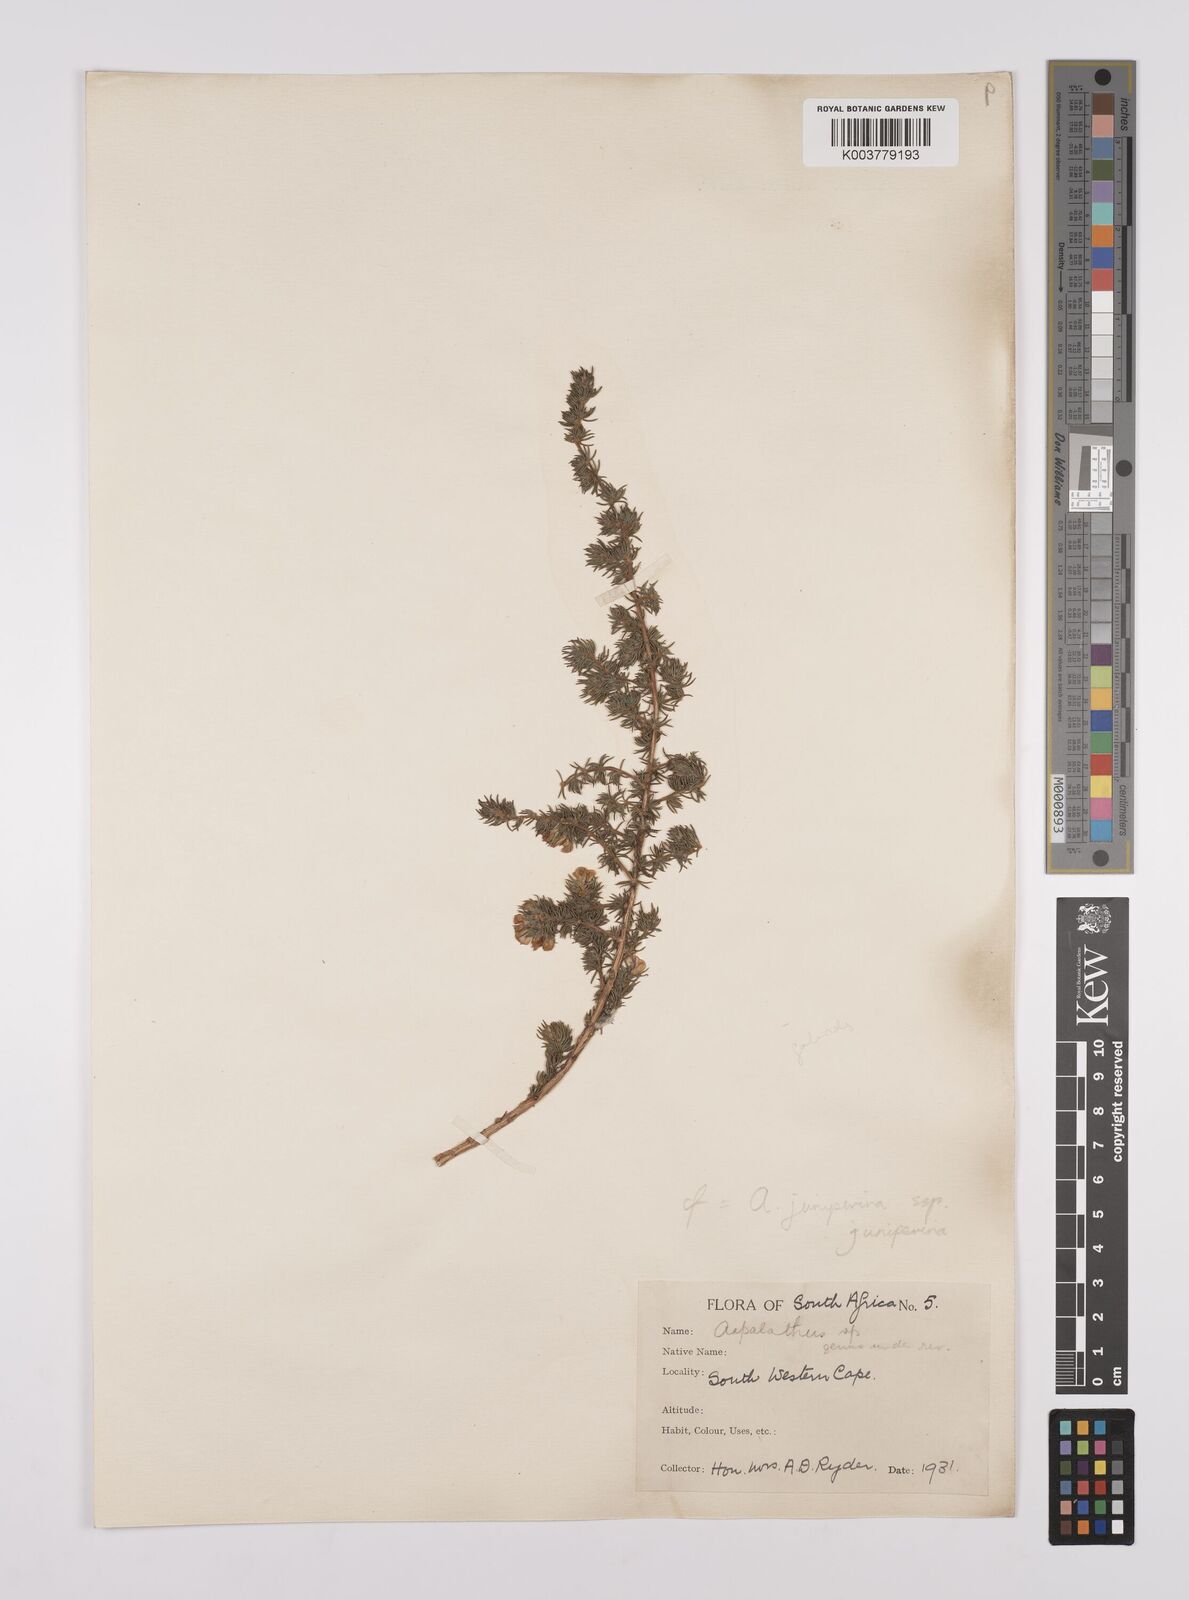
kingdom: Plantae
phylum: Tracheophyta
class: Magnoliopsida
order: Fabales
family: Fabaceae
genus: Aspalathus
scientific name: Aspalathus juniperina
